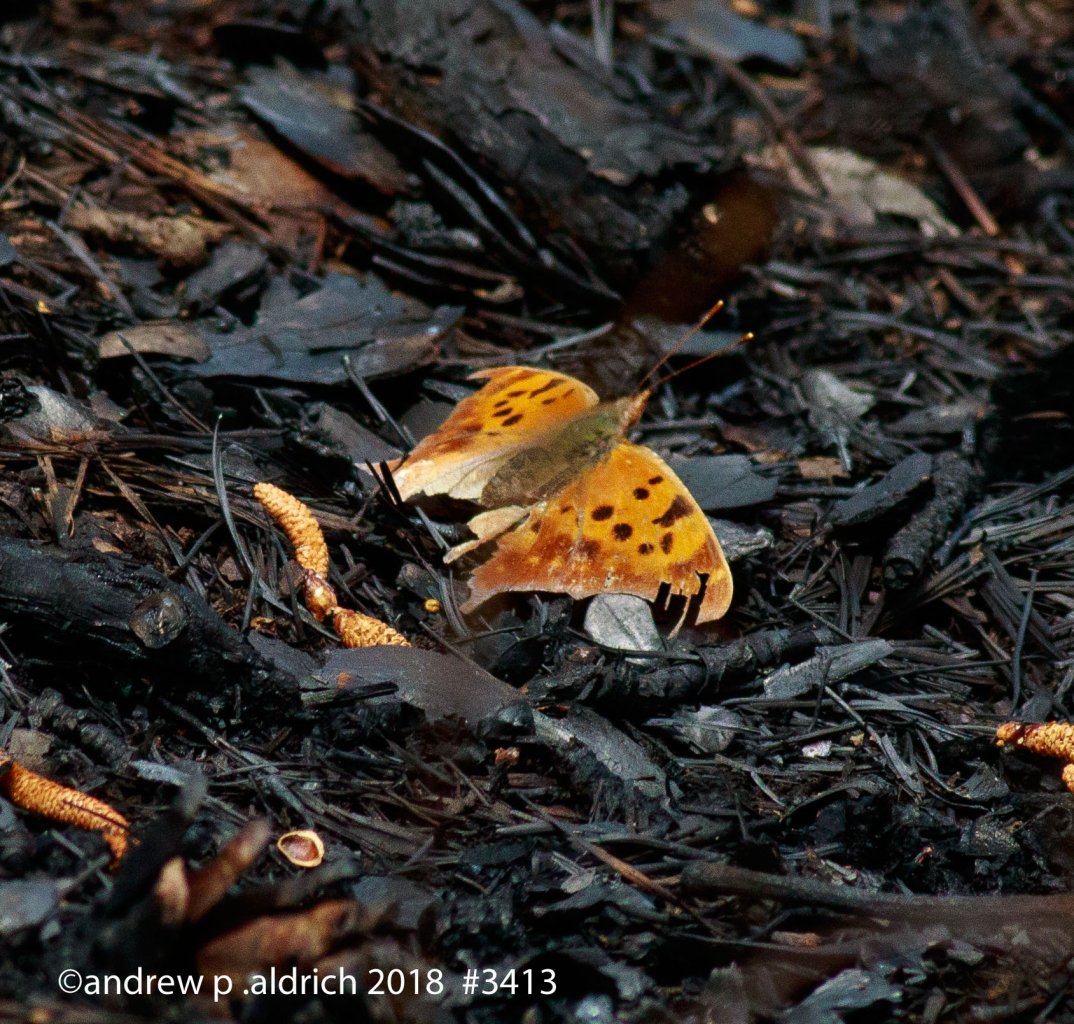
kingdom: Animalia
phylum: Arthropoda
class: Insecta
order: Lepidoptera
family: Nymphalidae
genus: Polygonia
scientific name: Polygonia interrogationis
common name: Question Mark
